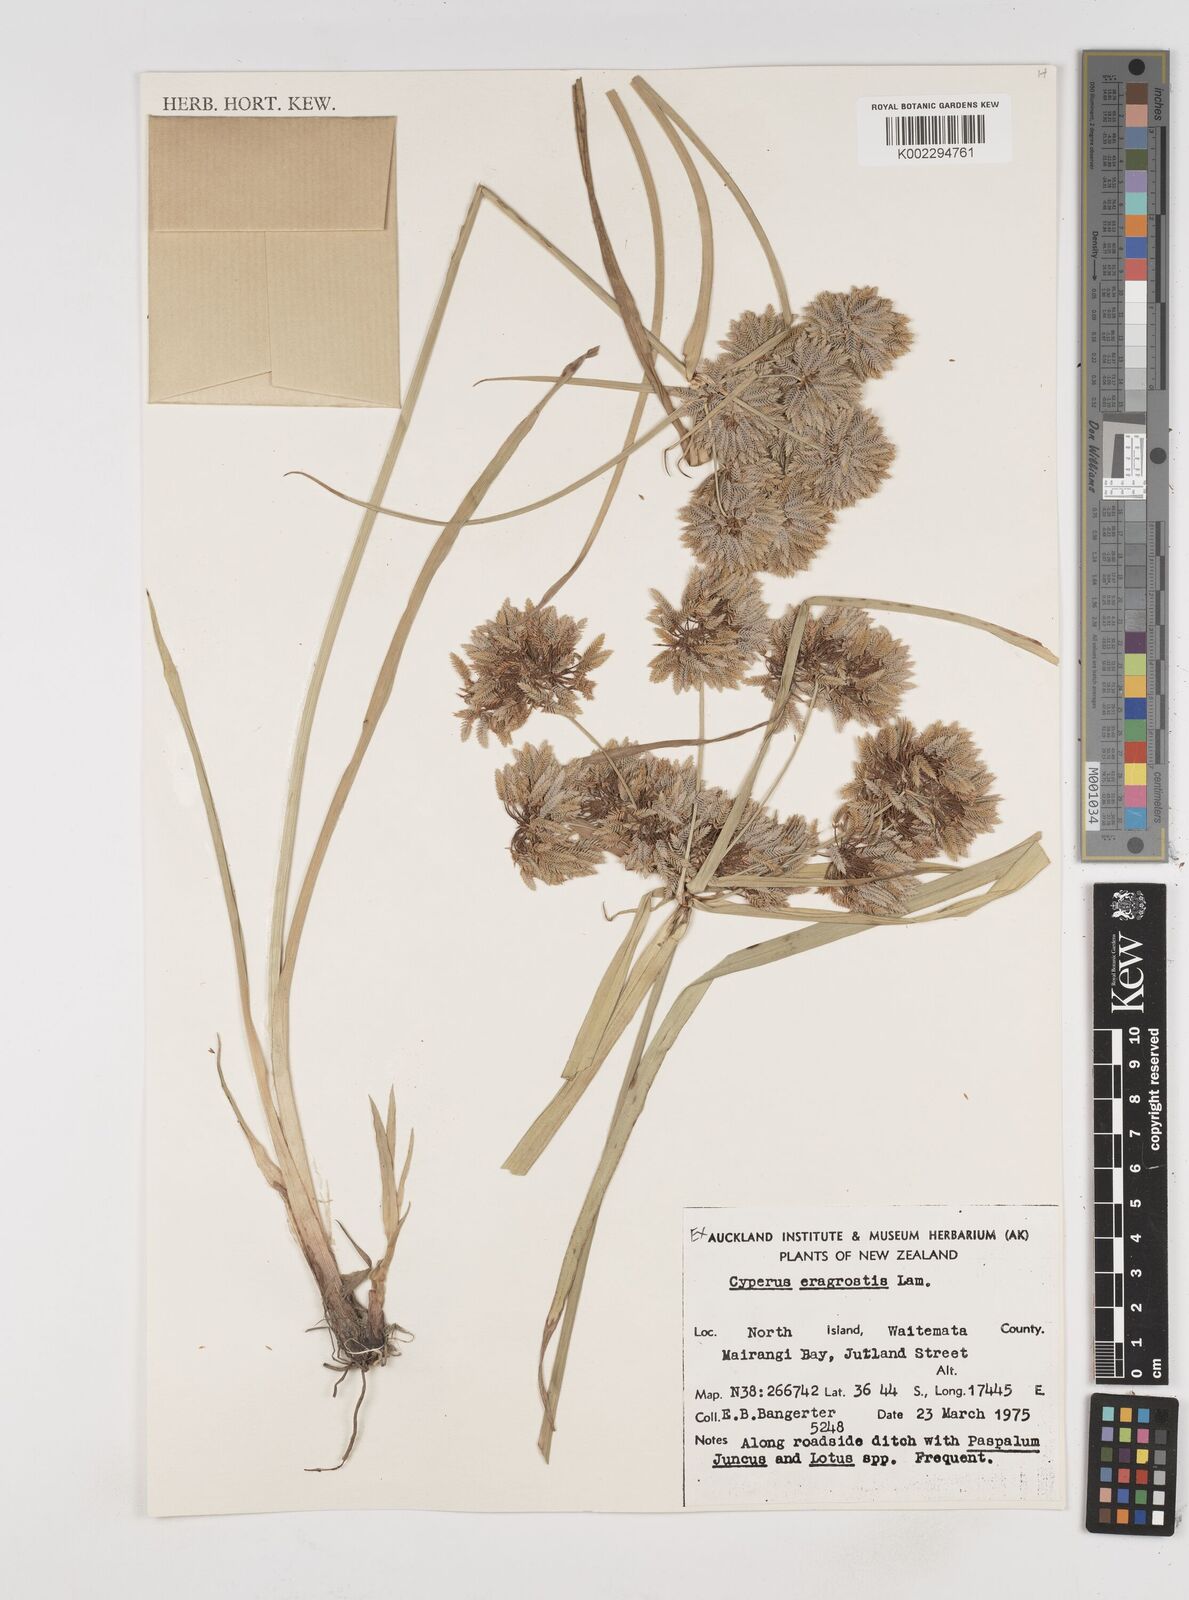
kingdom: Plantae
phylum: Tracheophyta
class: Liliopsida
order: Poales
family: Cyperaceae
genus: Cyperus
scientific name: Cyperus eragrostis
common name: Tall flatsedge
